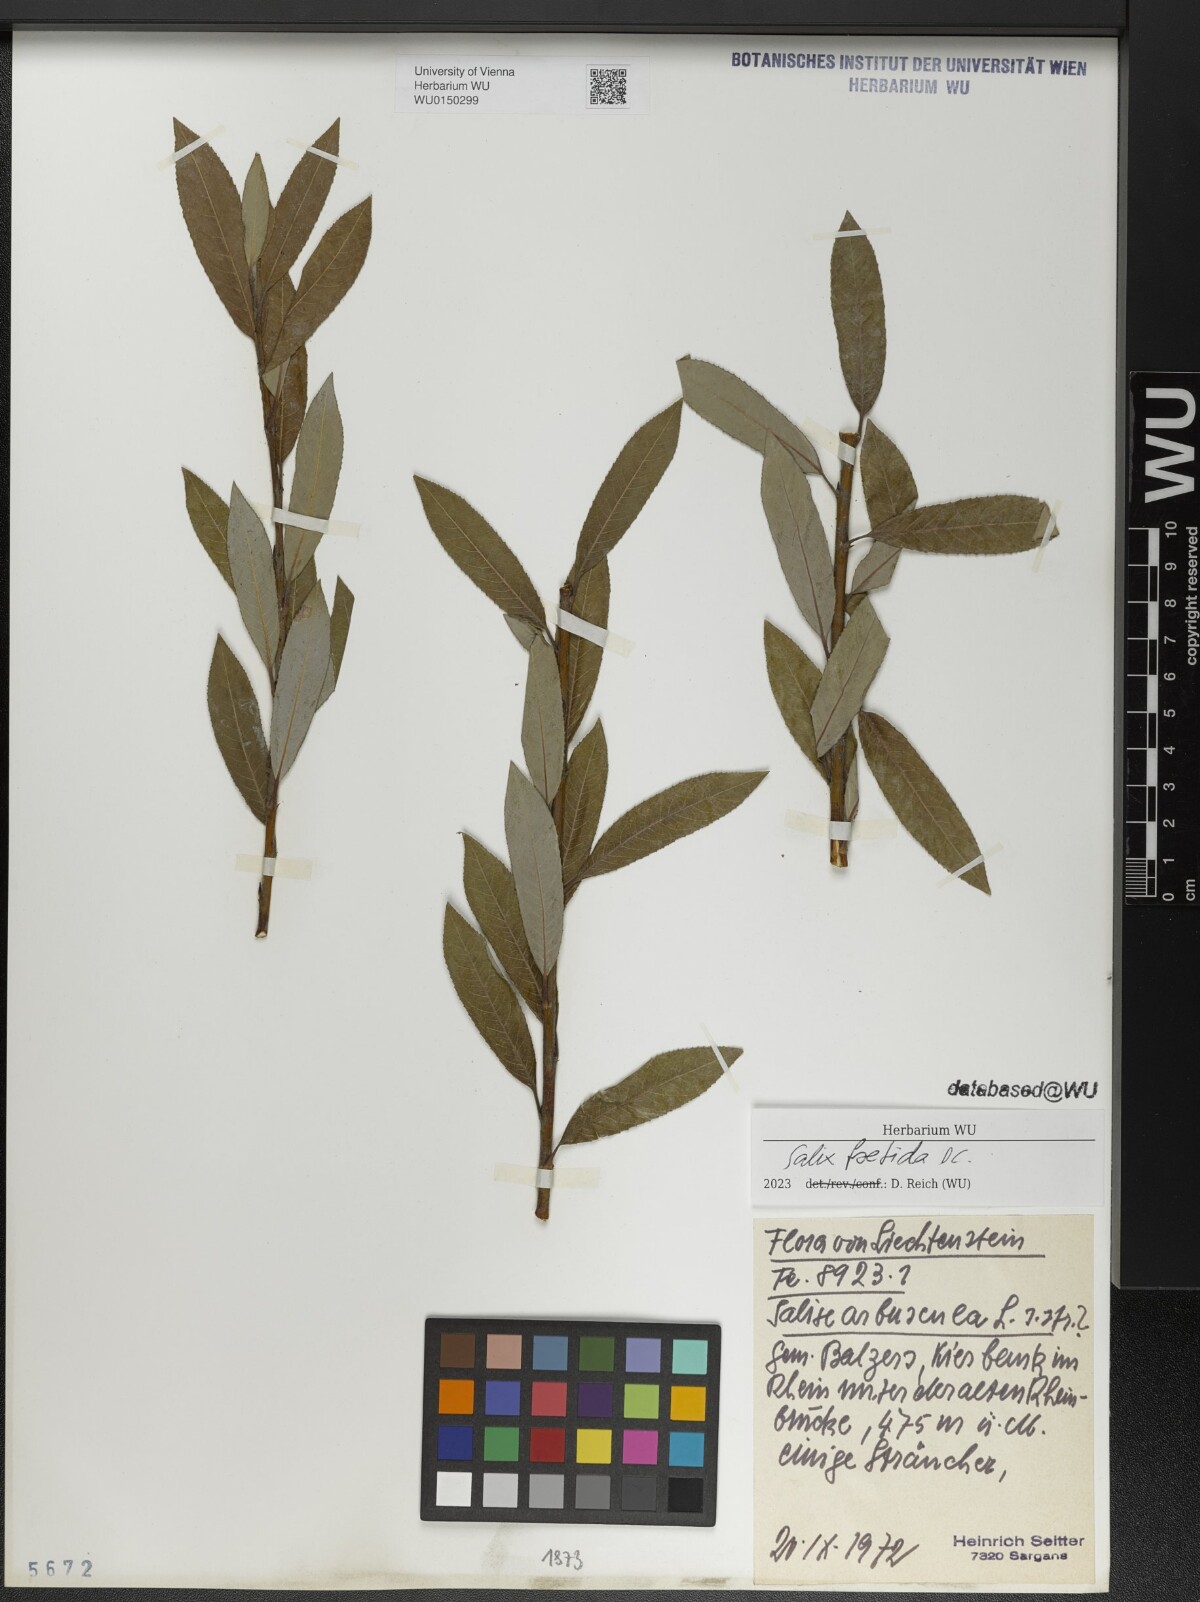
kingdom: Plantae
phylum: Tracheophyta
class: Magnoliopsida
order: Malpighiales
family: Salicaceae
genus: Salix
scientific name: Salix foetida
